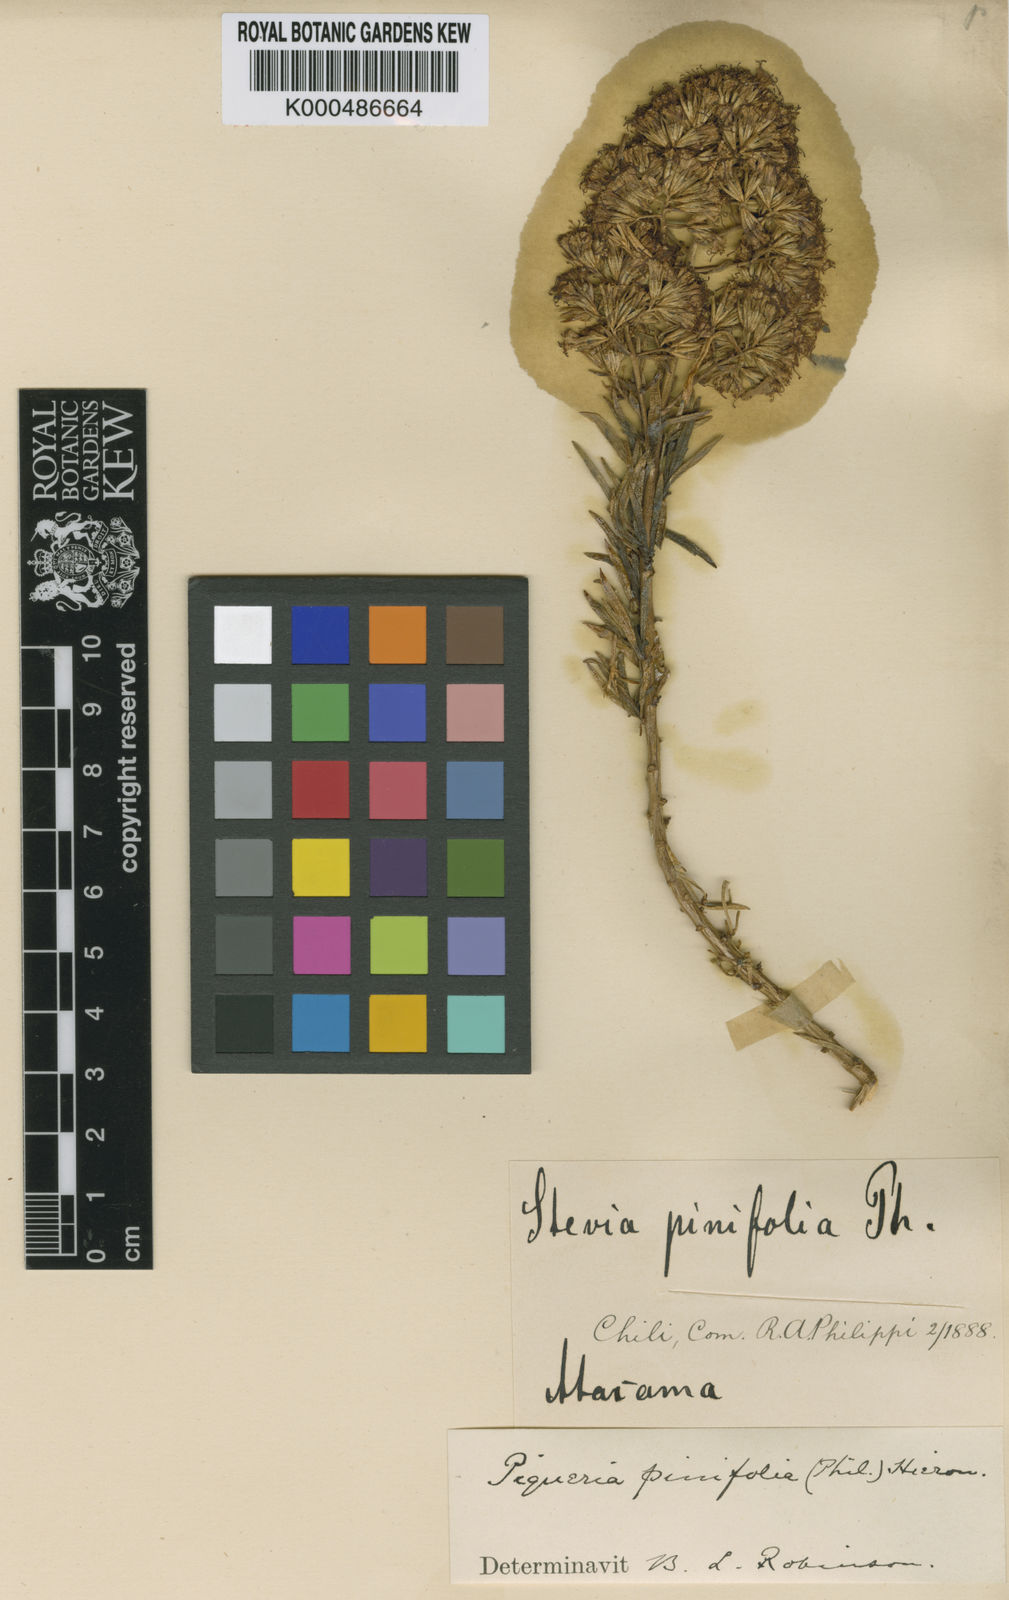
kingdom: Plantae
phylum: Tracheophyta
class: Magnoliopsida
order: Asterales
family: Asteraceae
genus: Ophryosporus
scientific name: Ophryosporus pinifolius
